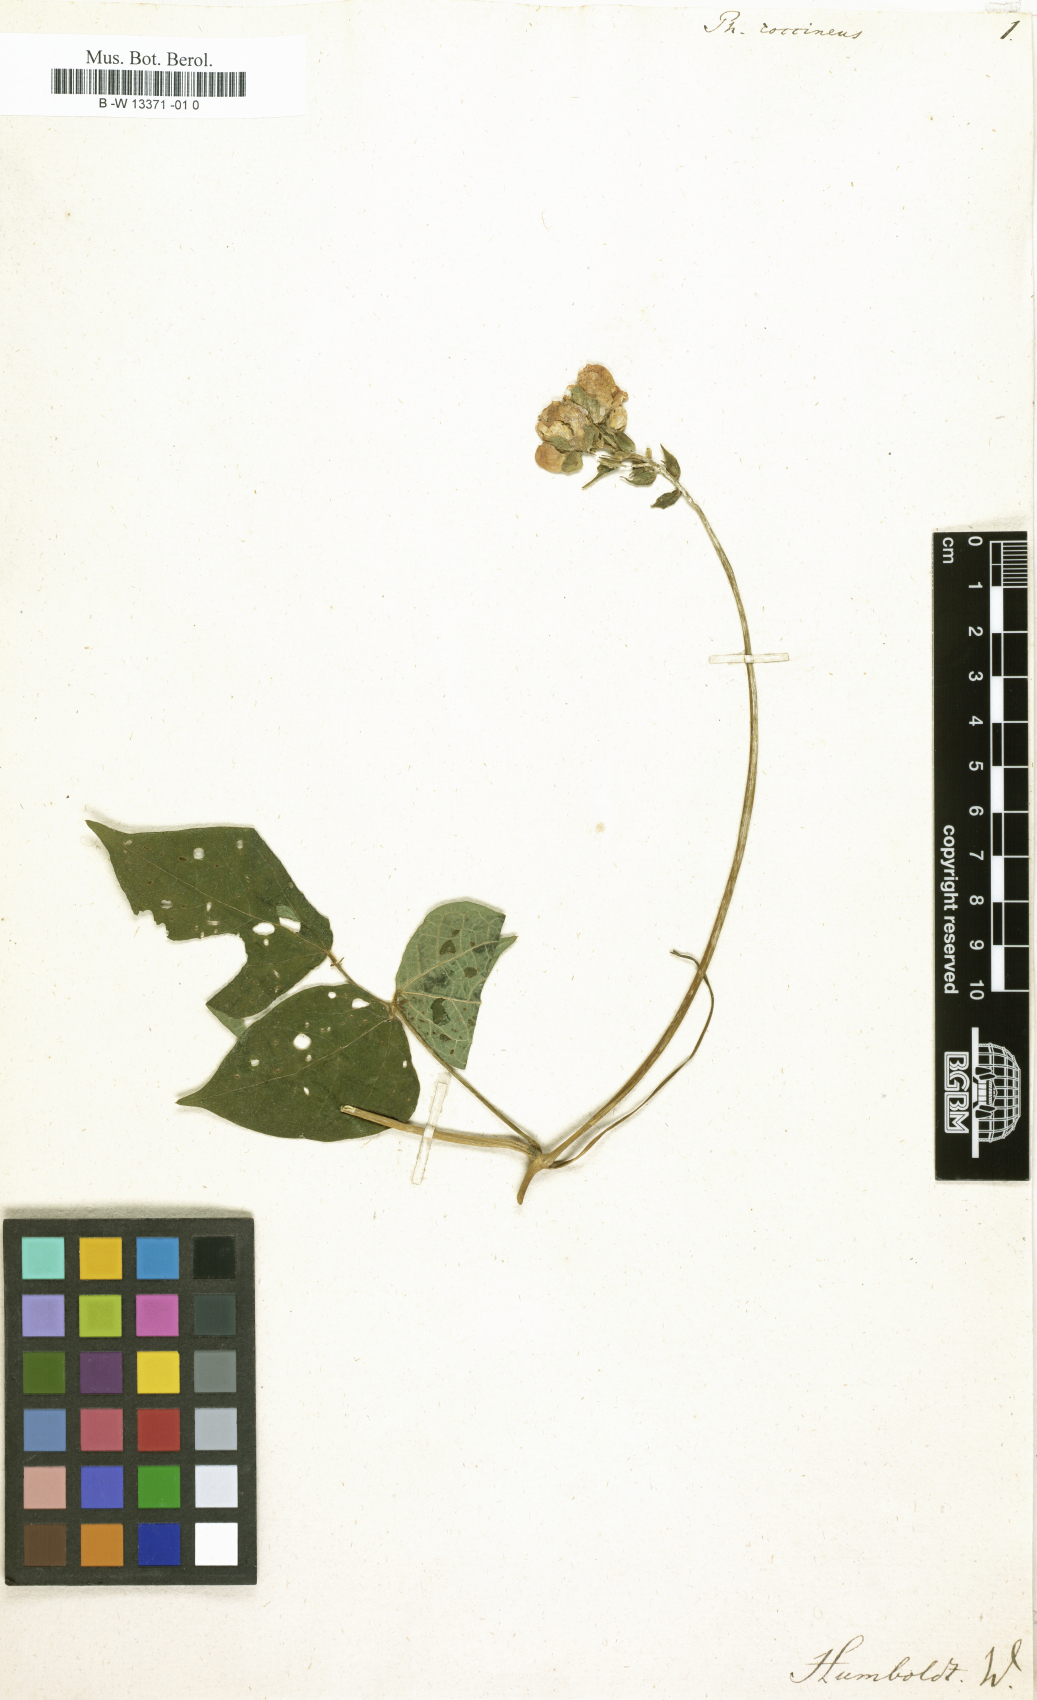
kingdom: Plantae
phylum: Tracheophyta
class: Magnoliopsida
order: Fabales
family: Fabaceae
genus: Phaseolus
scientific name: Phaseolus coccineus
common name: Runner bean
